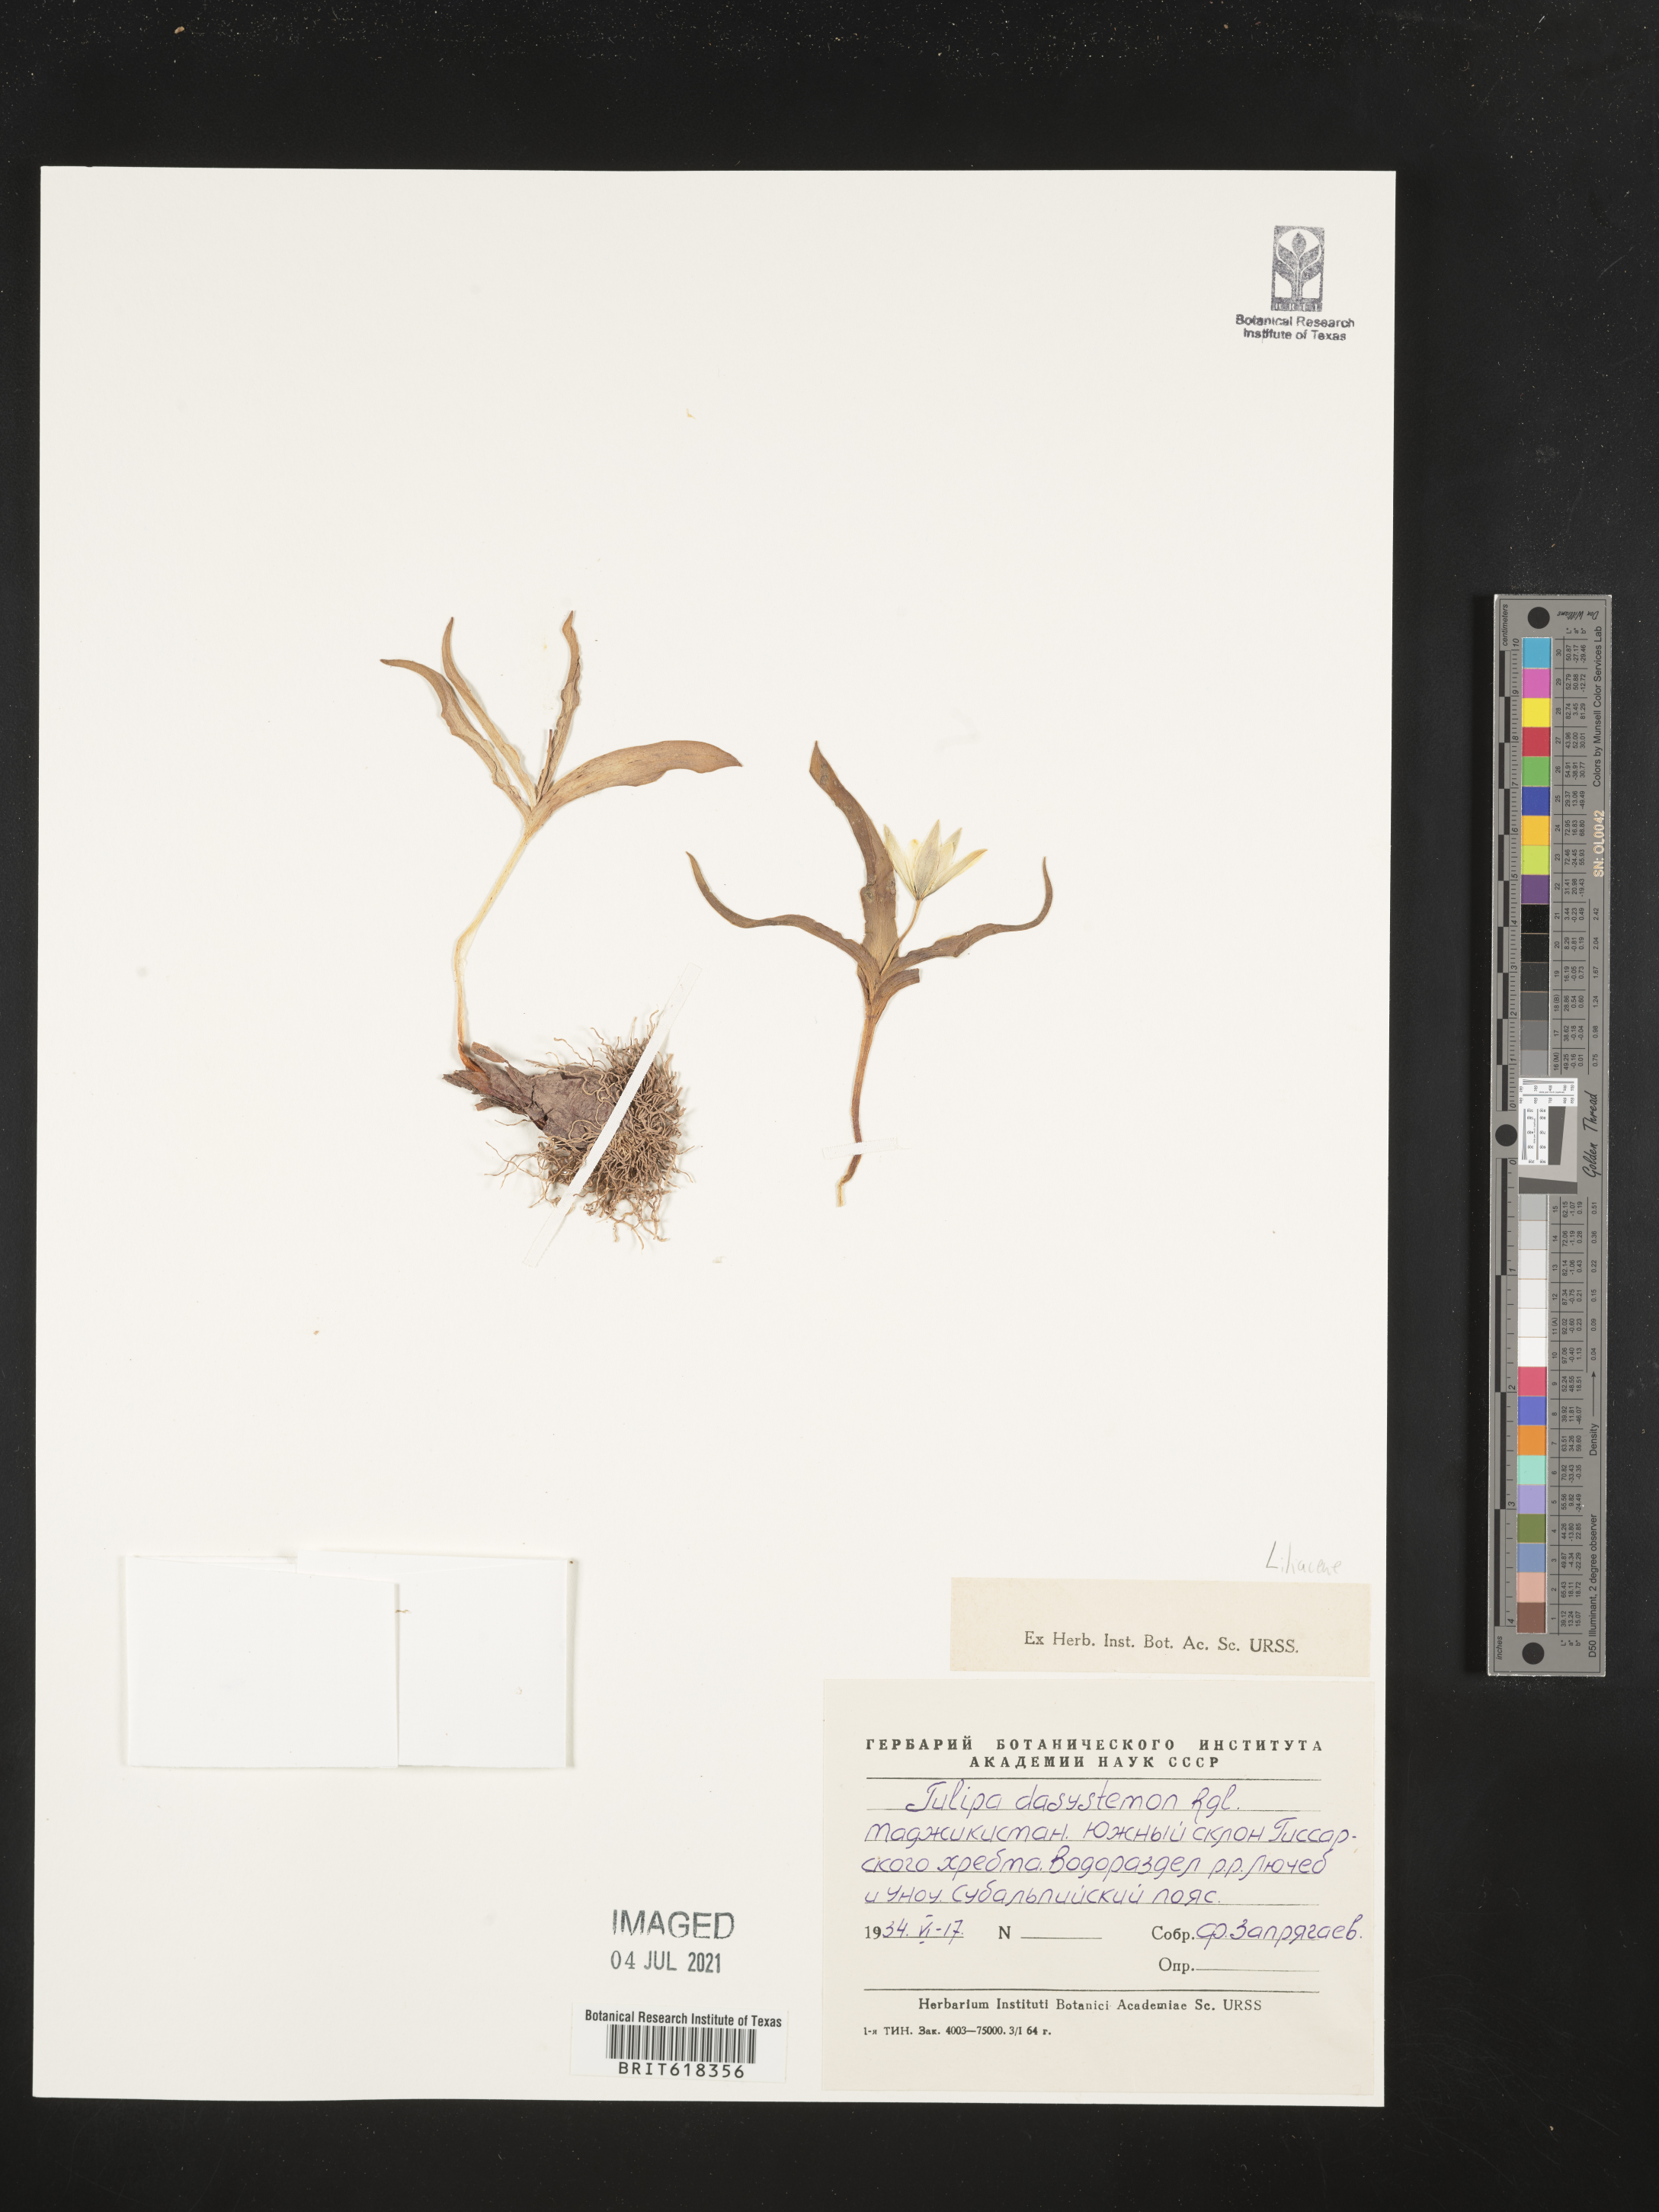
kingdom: Plantae
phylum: Tracheophyta
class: Liliopsida
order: Liliales
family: Liliaceae
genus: Tulipa
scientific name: Tulipa dasystemon
